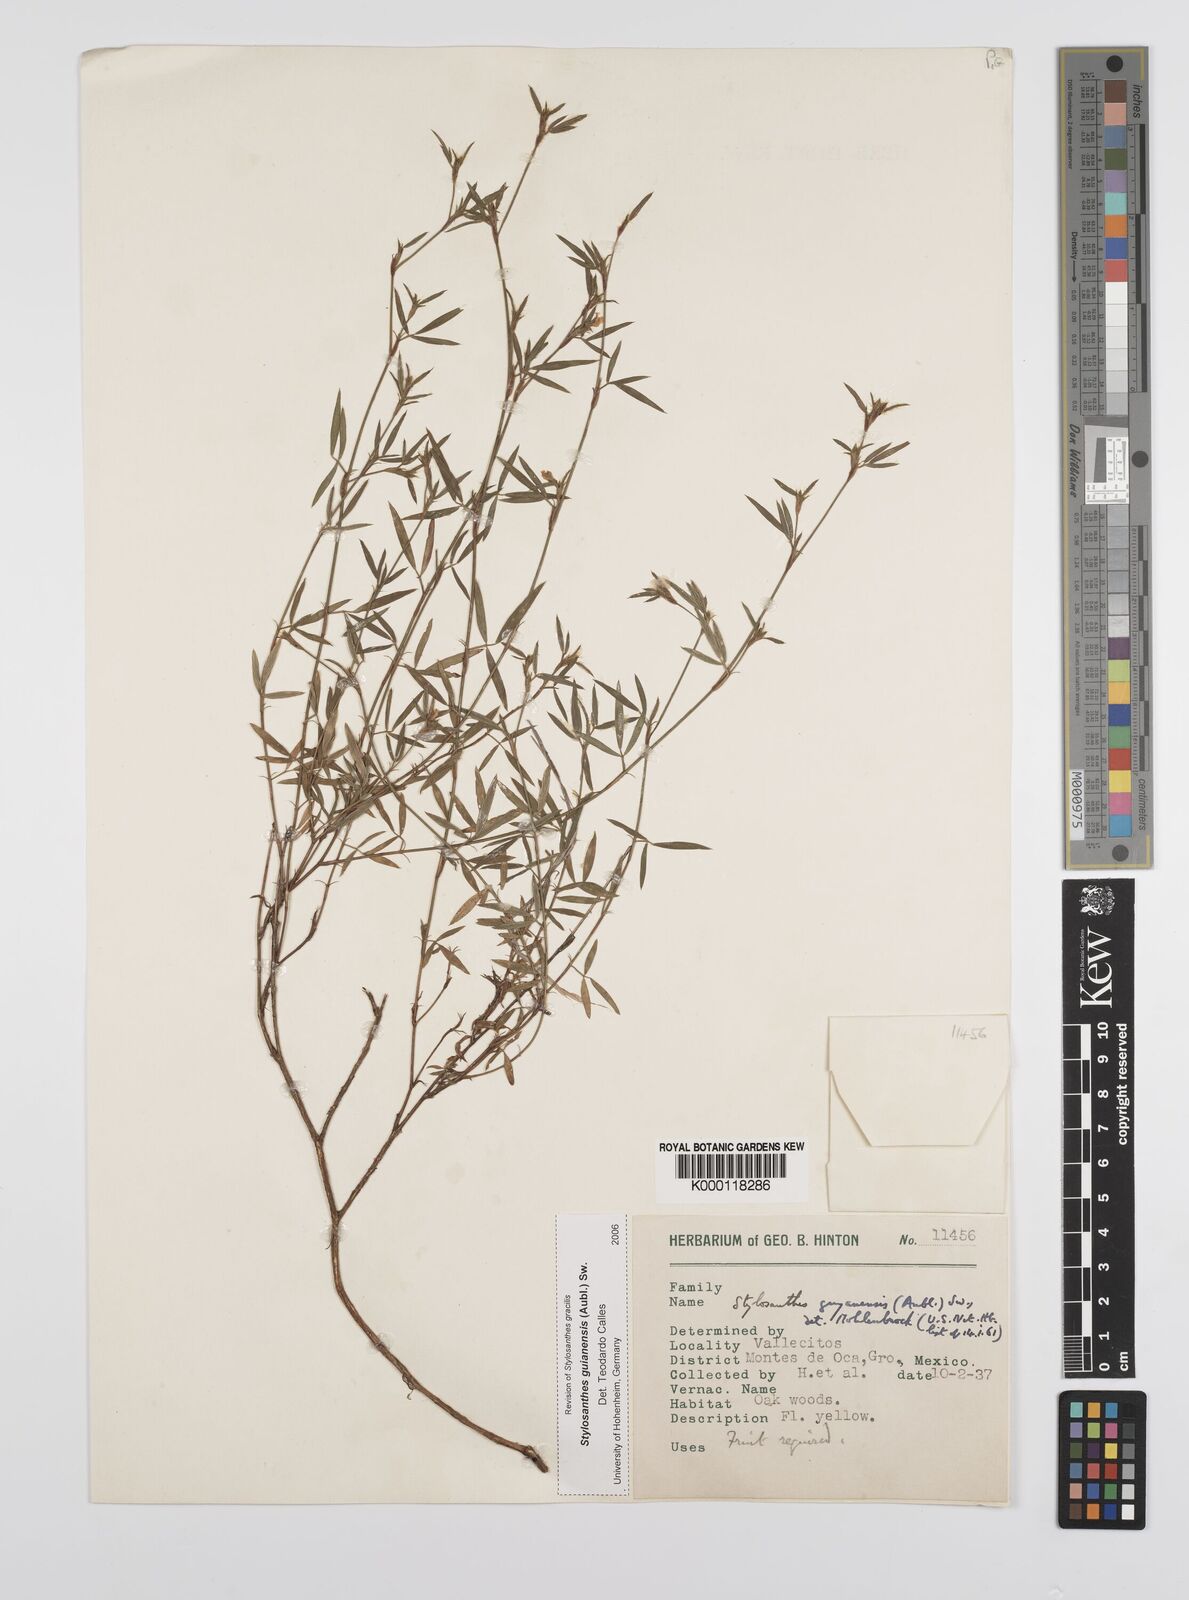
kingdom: Plantae
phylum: Tracheophyta
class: Magnoliopsida
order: Fabales
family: Fabaceae
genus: Stylosanthes
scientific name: Stylosanthes guianensis
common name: Pencil flower
